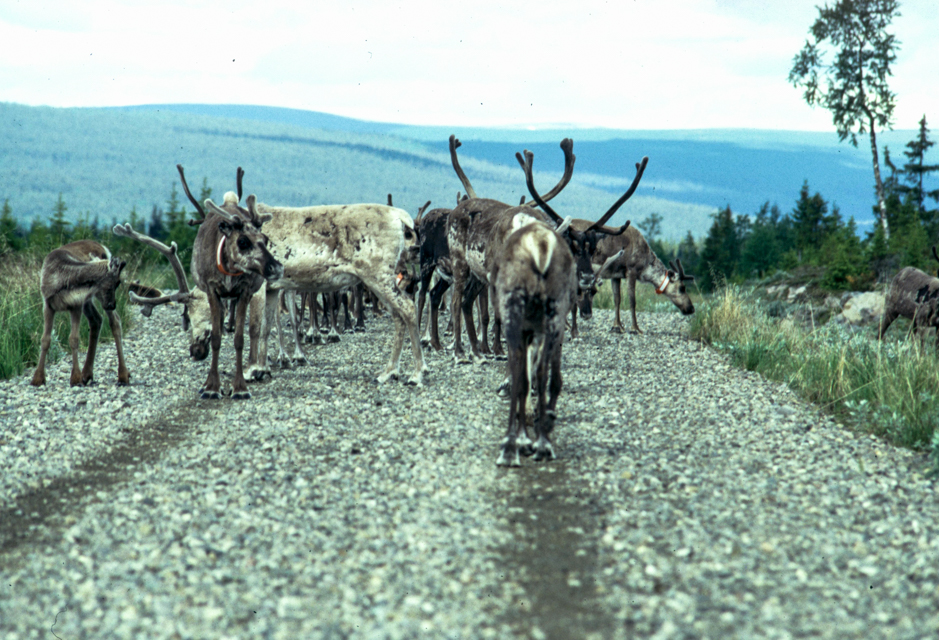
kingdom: Animalia
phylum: Chordata
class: Mammalia
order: Artiodactyla
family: Cervidae
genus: Rangifer
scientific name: Rangifer tarandus
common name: Reindeer
